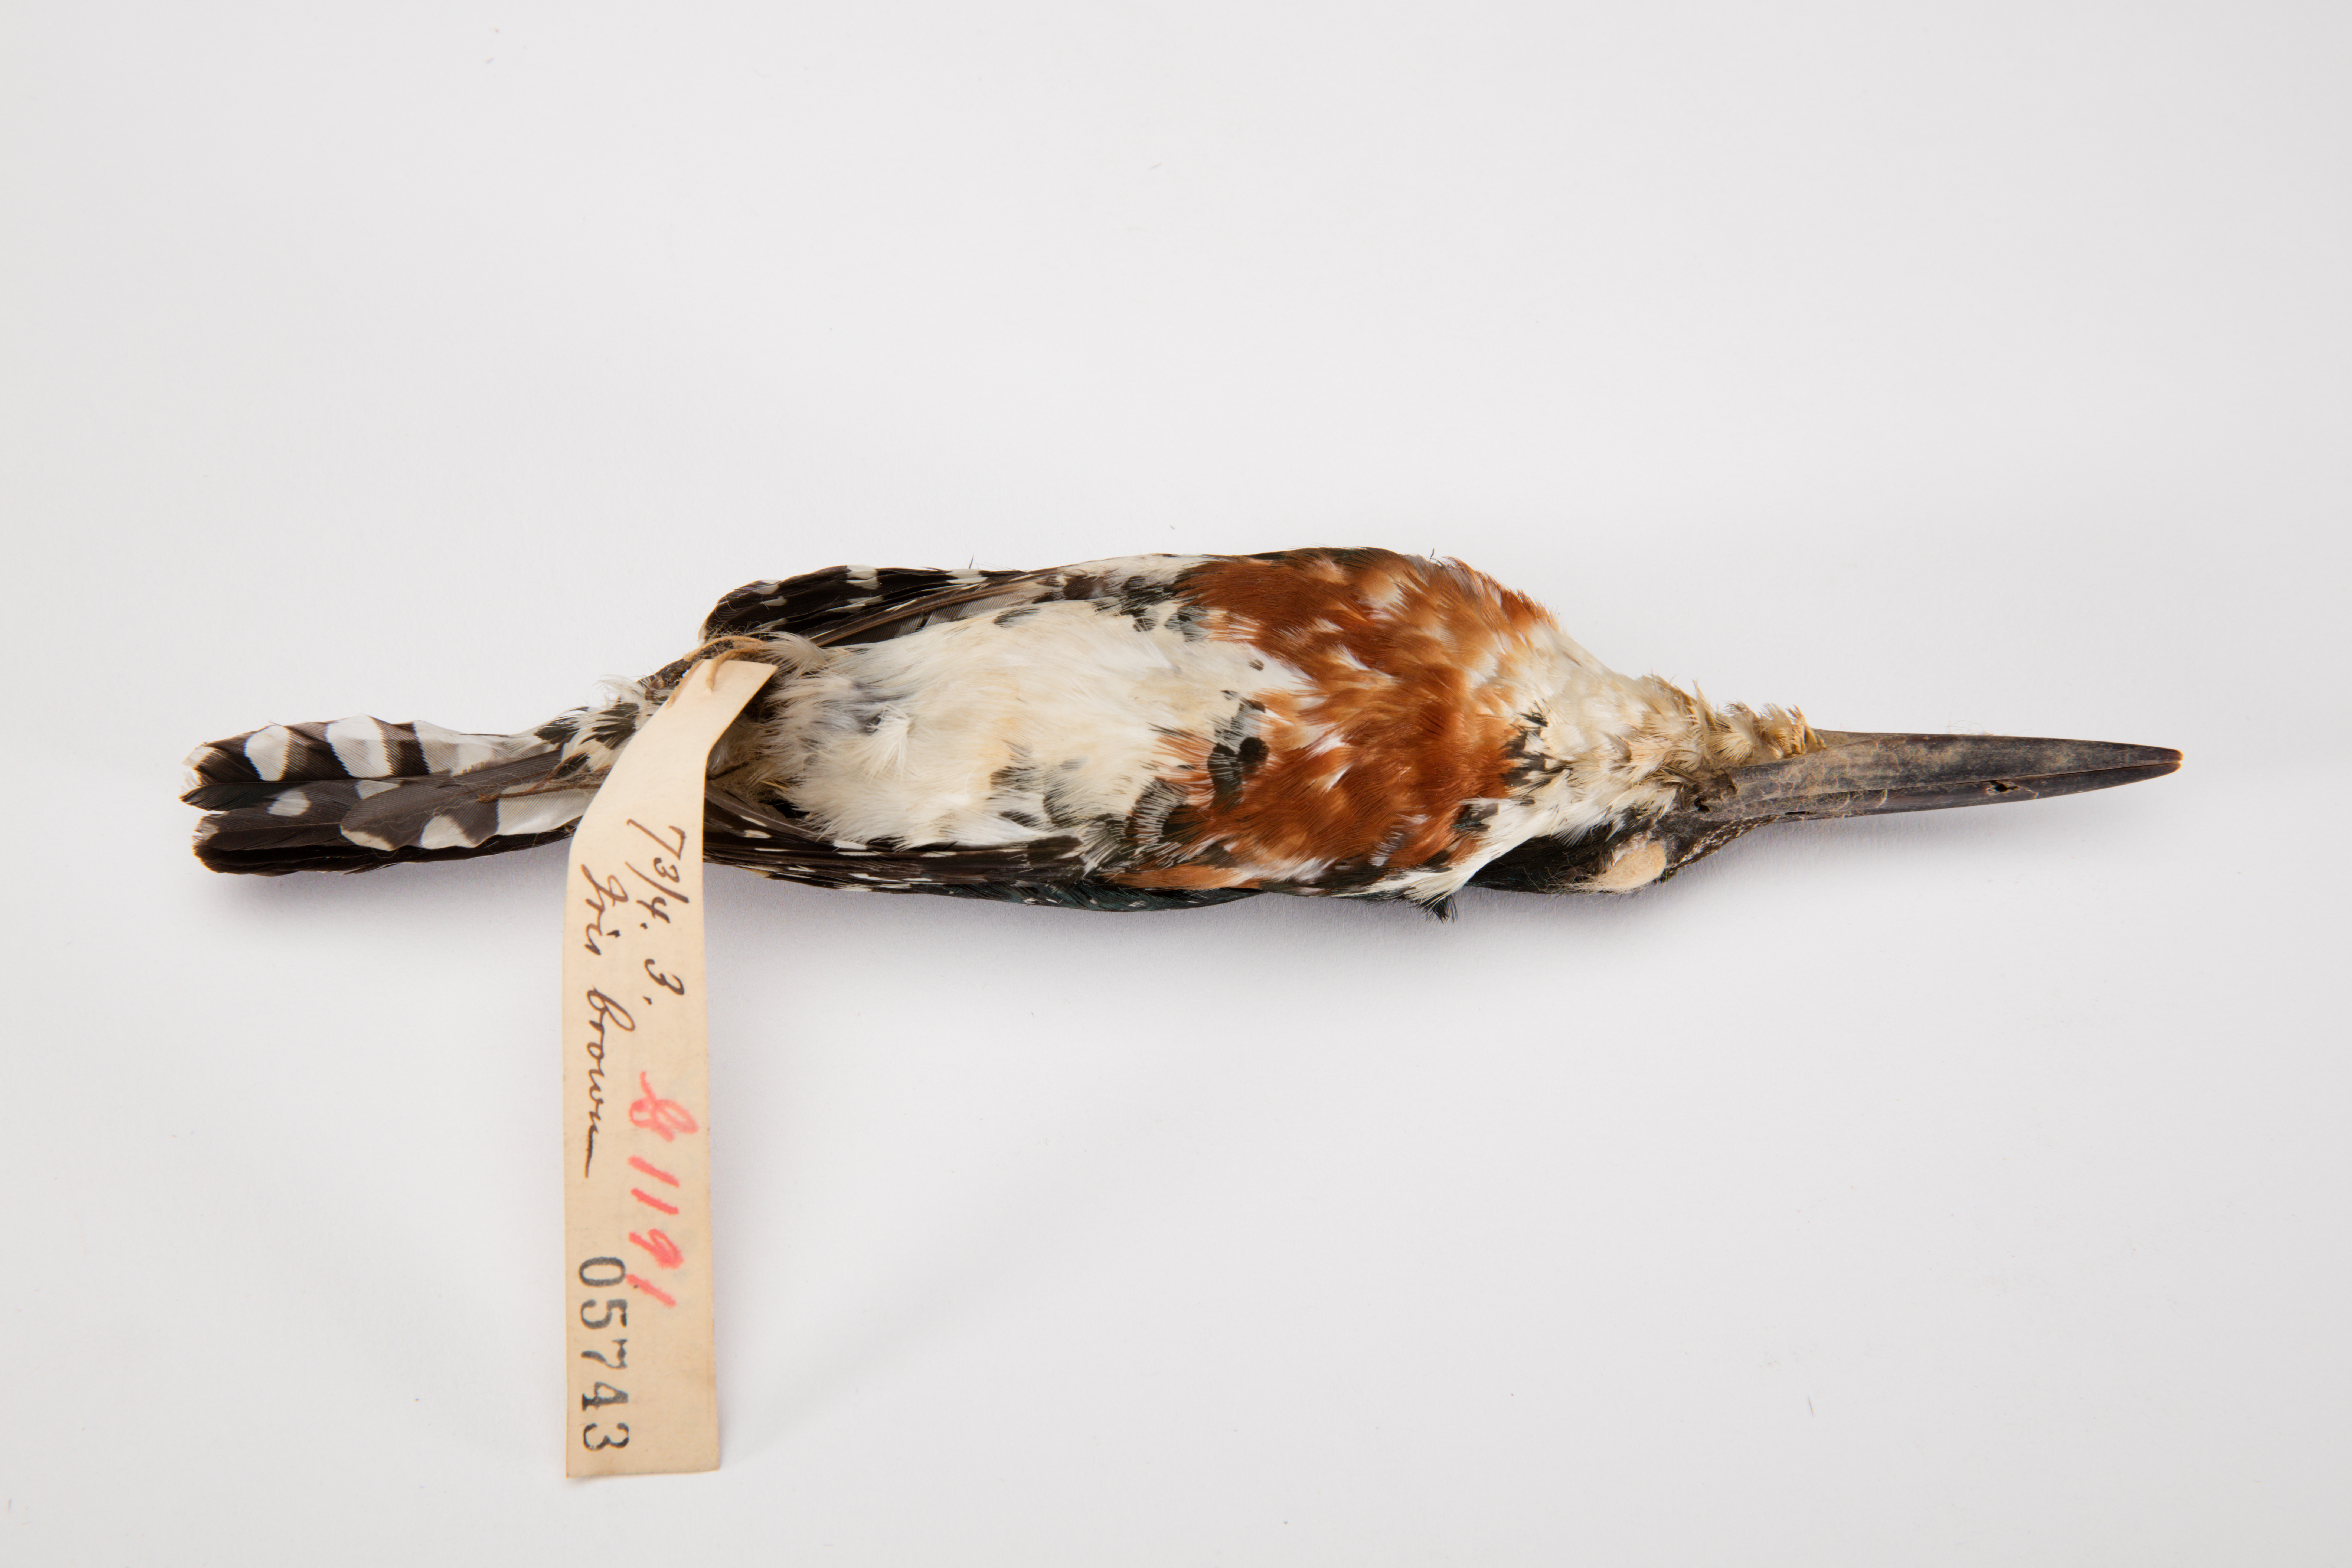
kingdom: Animalia
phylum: Chordata
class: Aves
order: Coraciiformes
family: Alcedinidae
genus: Chloroceryle
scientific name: Chloroceryle americana
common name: Green kingfisher
